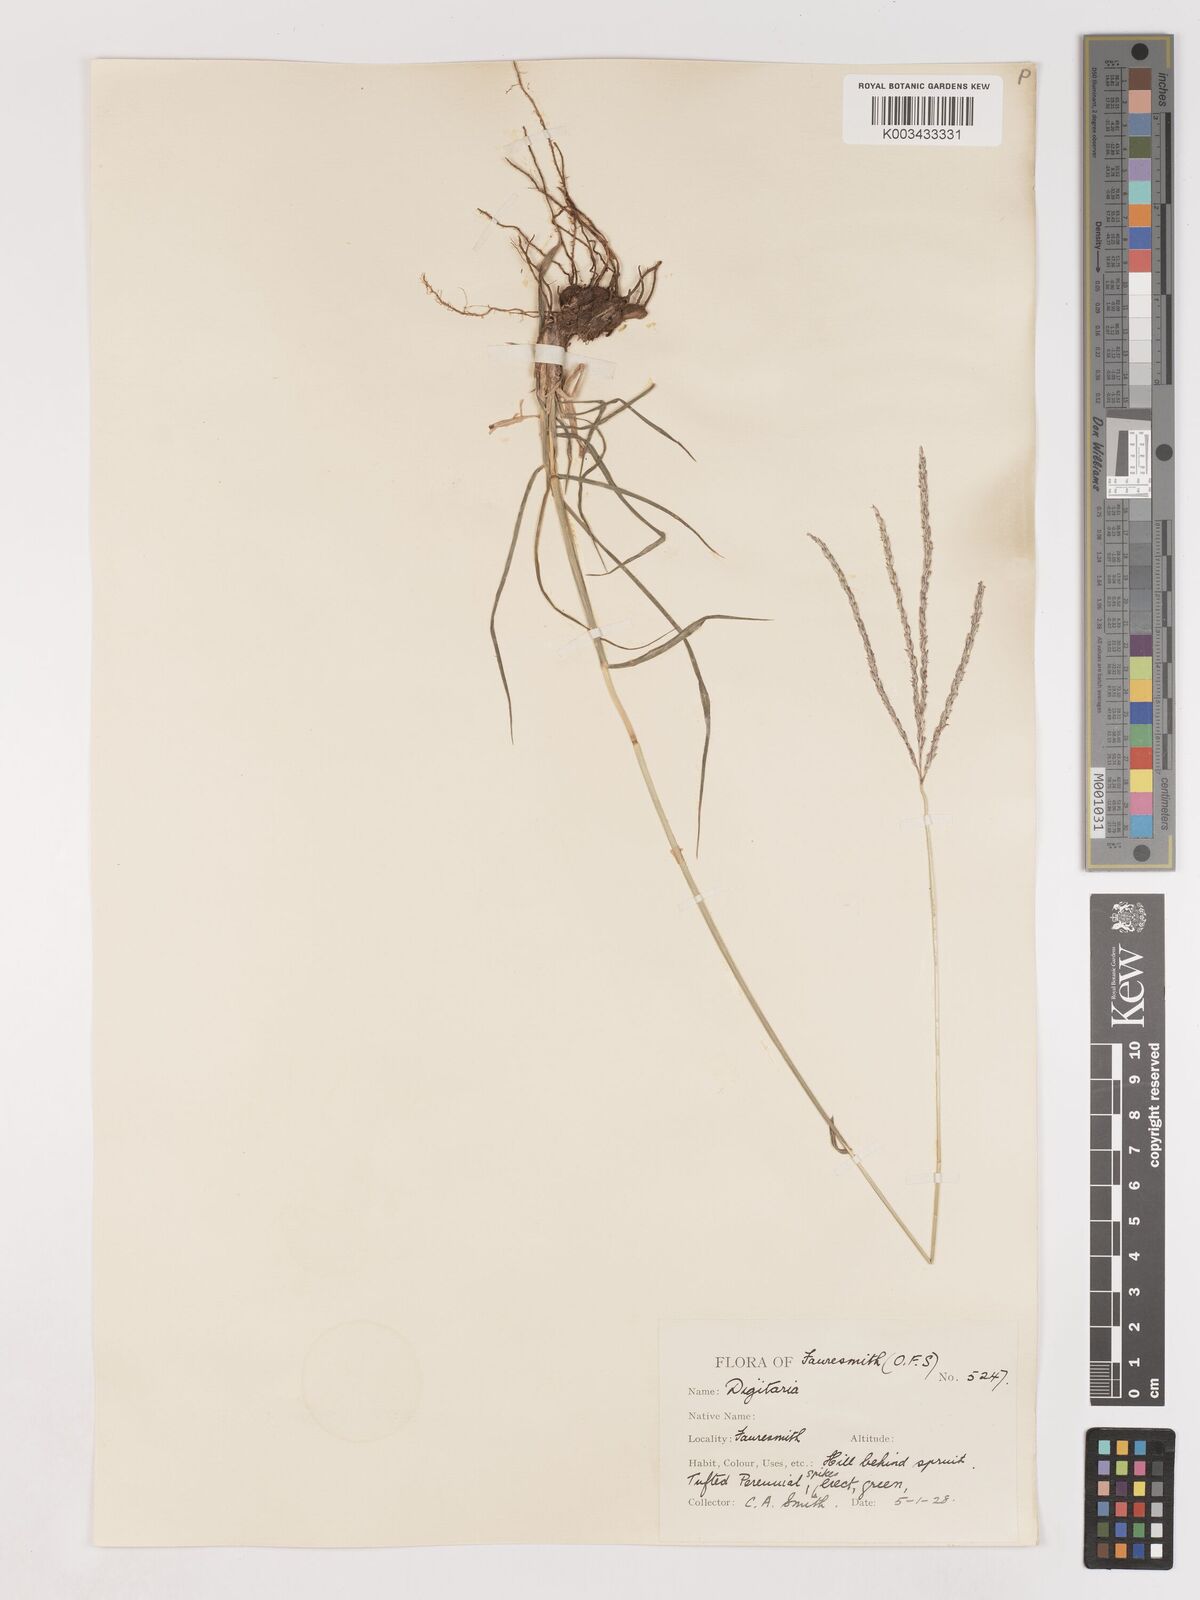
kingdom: Plantae
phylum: Tracheophyta
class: Liliopsida
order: Poales
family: Poaceae
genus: Digitaria
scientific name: Digitaria eriantha
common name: Digitgrass
